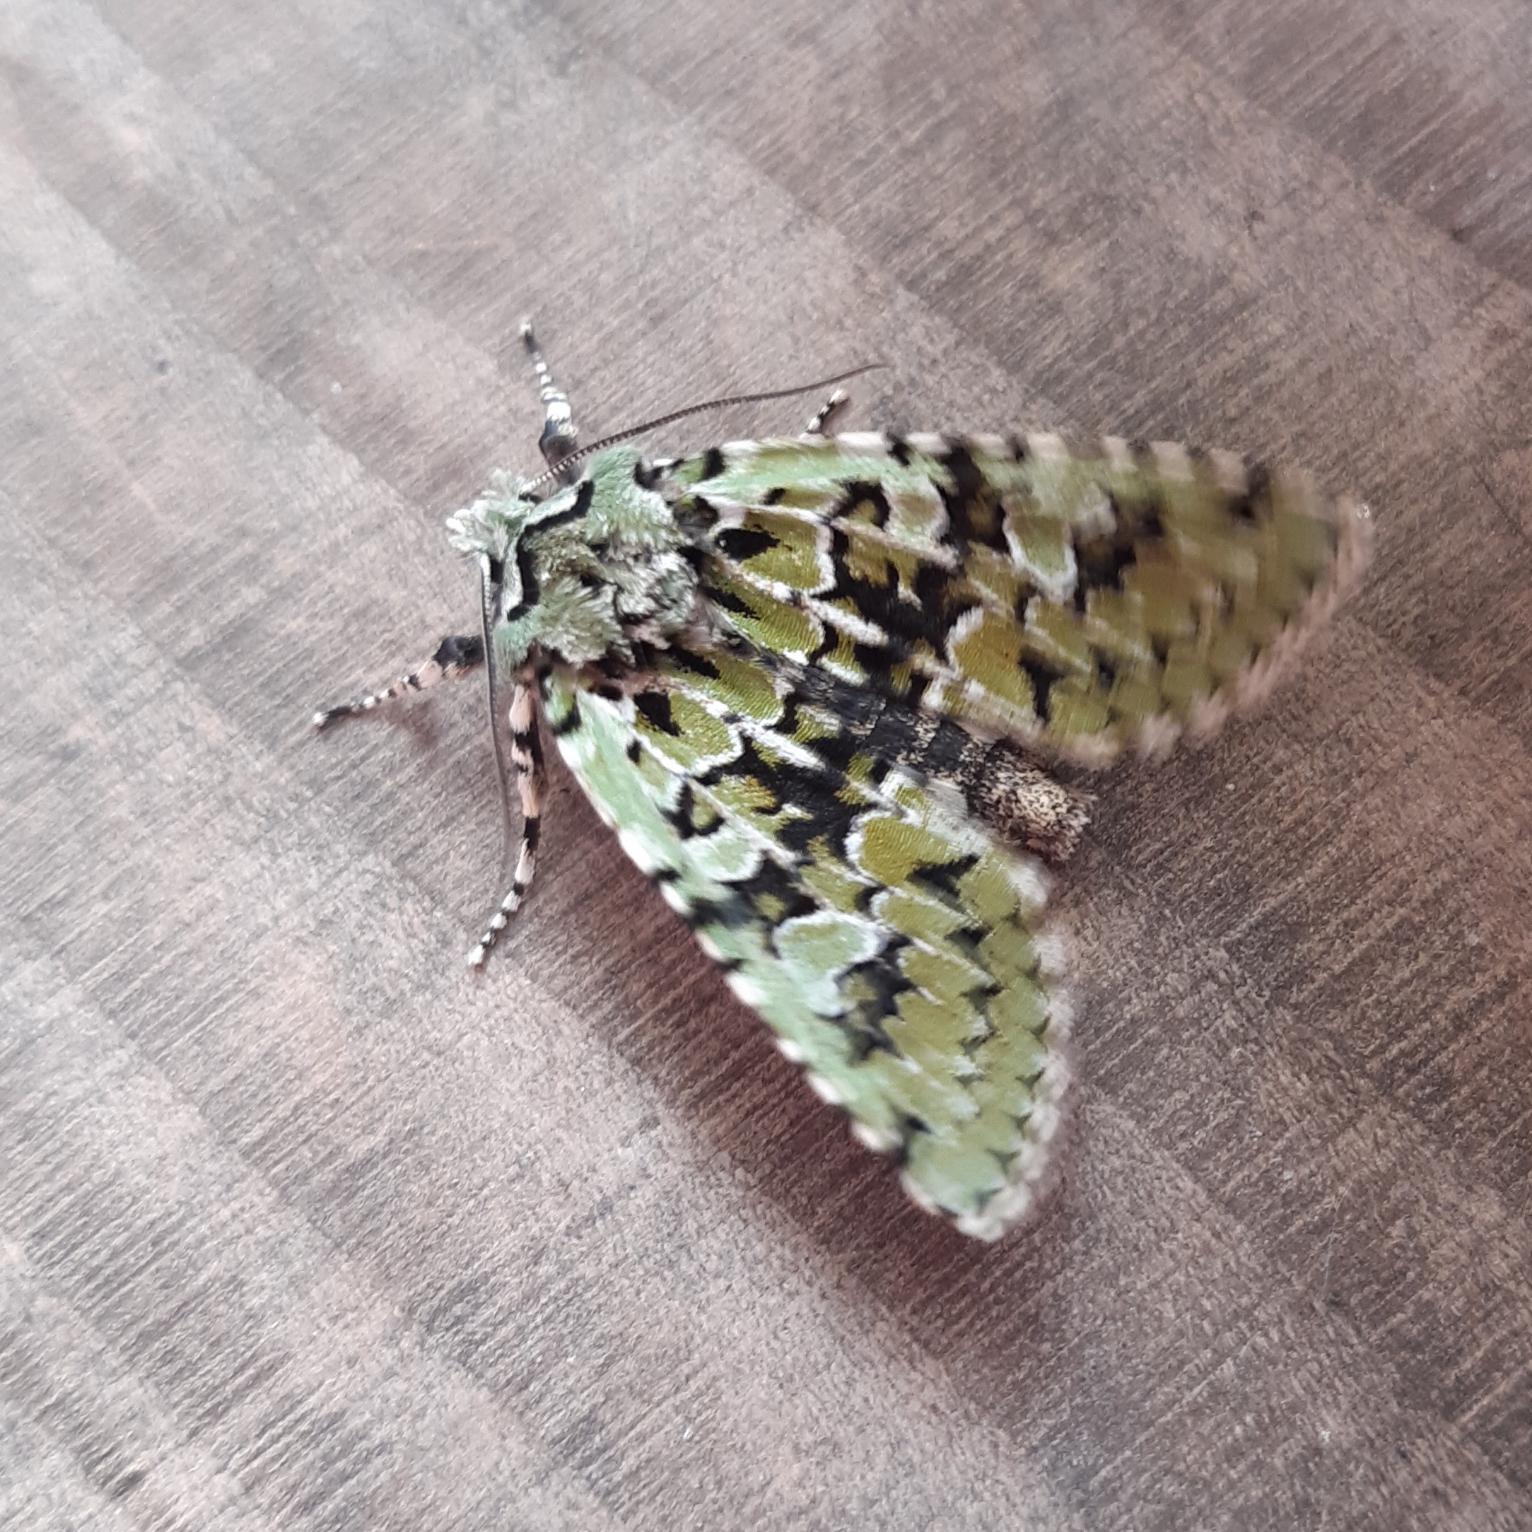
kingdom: Animalia
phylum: Arthropoda
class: Insecta
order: Lepidoptera
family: Noctuidae
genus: Griposia
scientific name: Griposia aprilina
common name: Aprilugle
